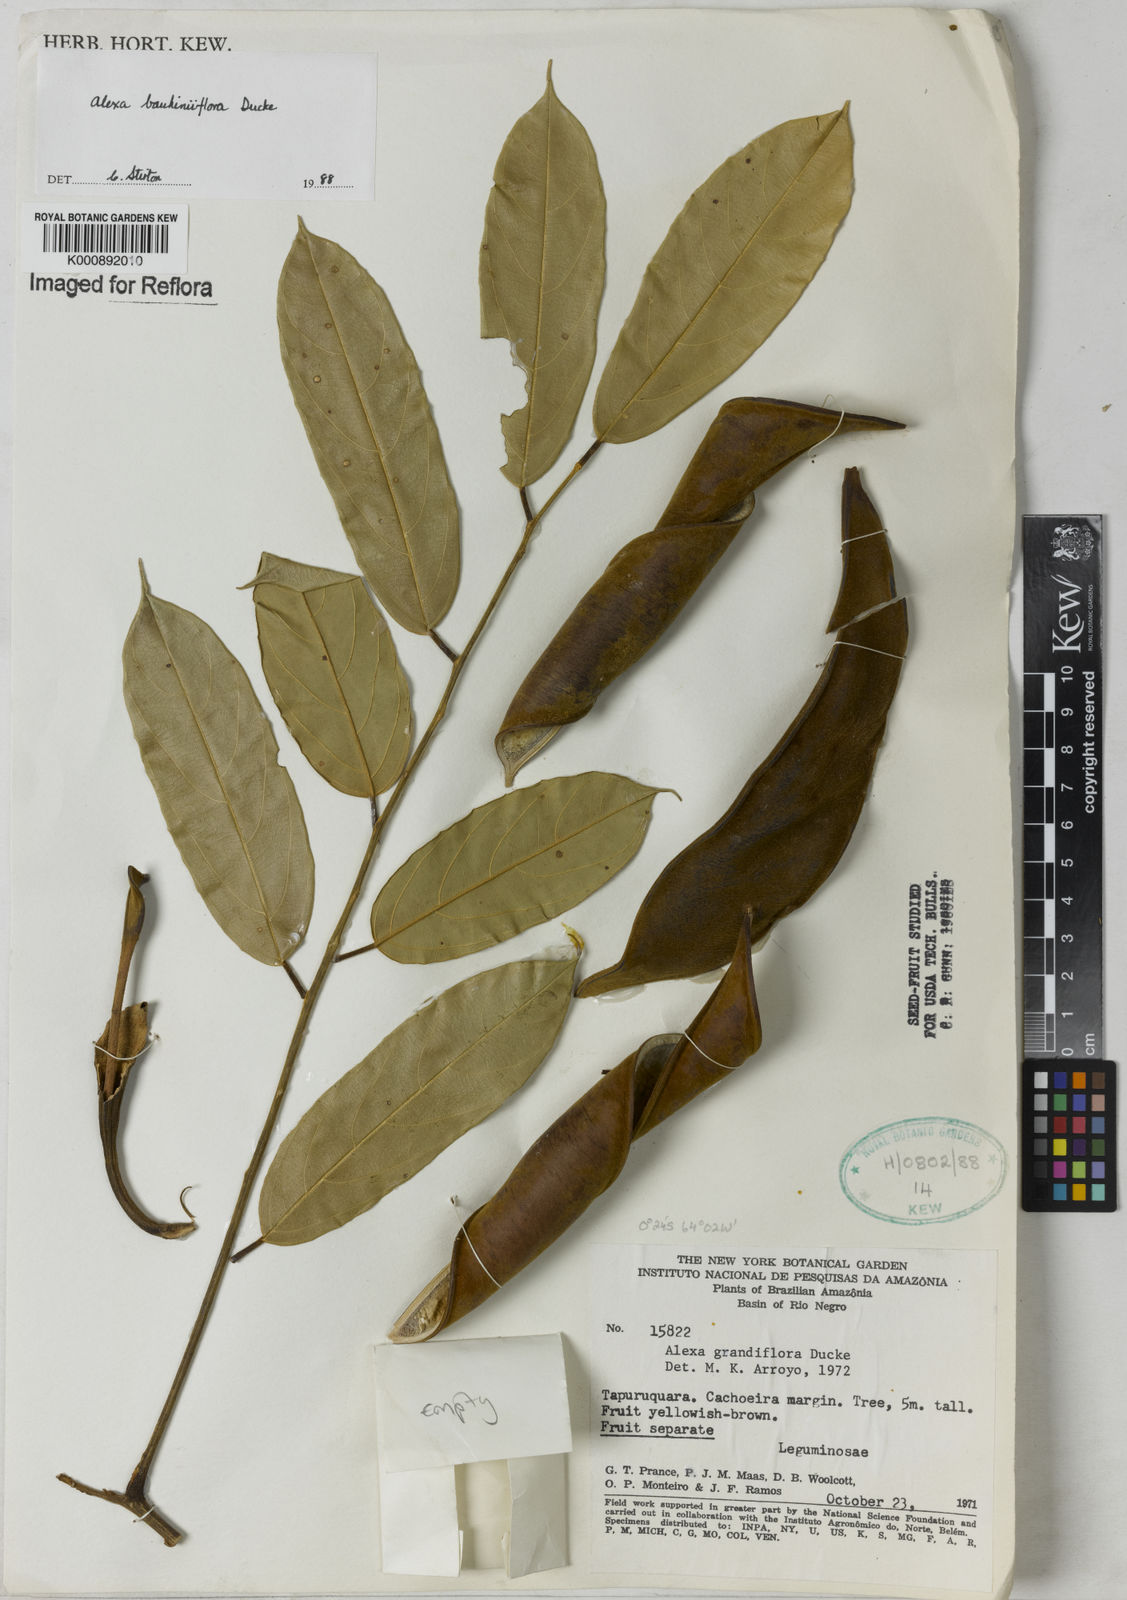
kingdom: Plantae
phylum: Tracheophyta
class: Magnoliopsida
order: Fabales
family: Fabaceae
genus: Alexa
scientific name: Alexa grandiflora
